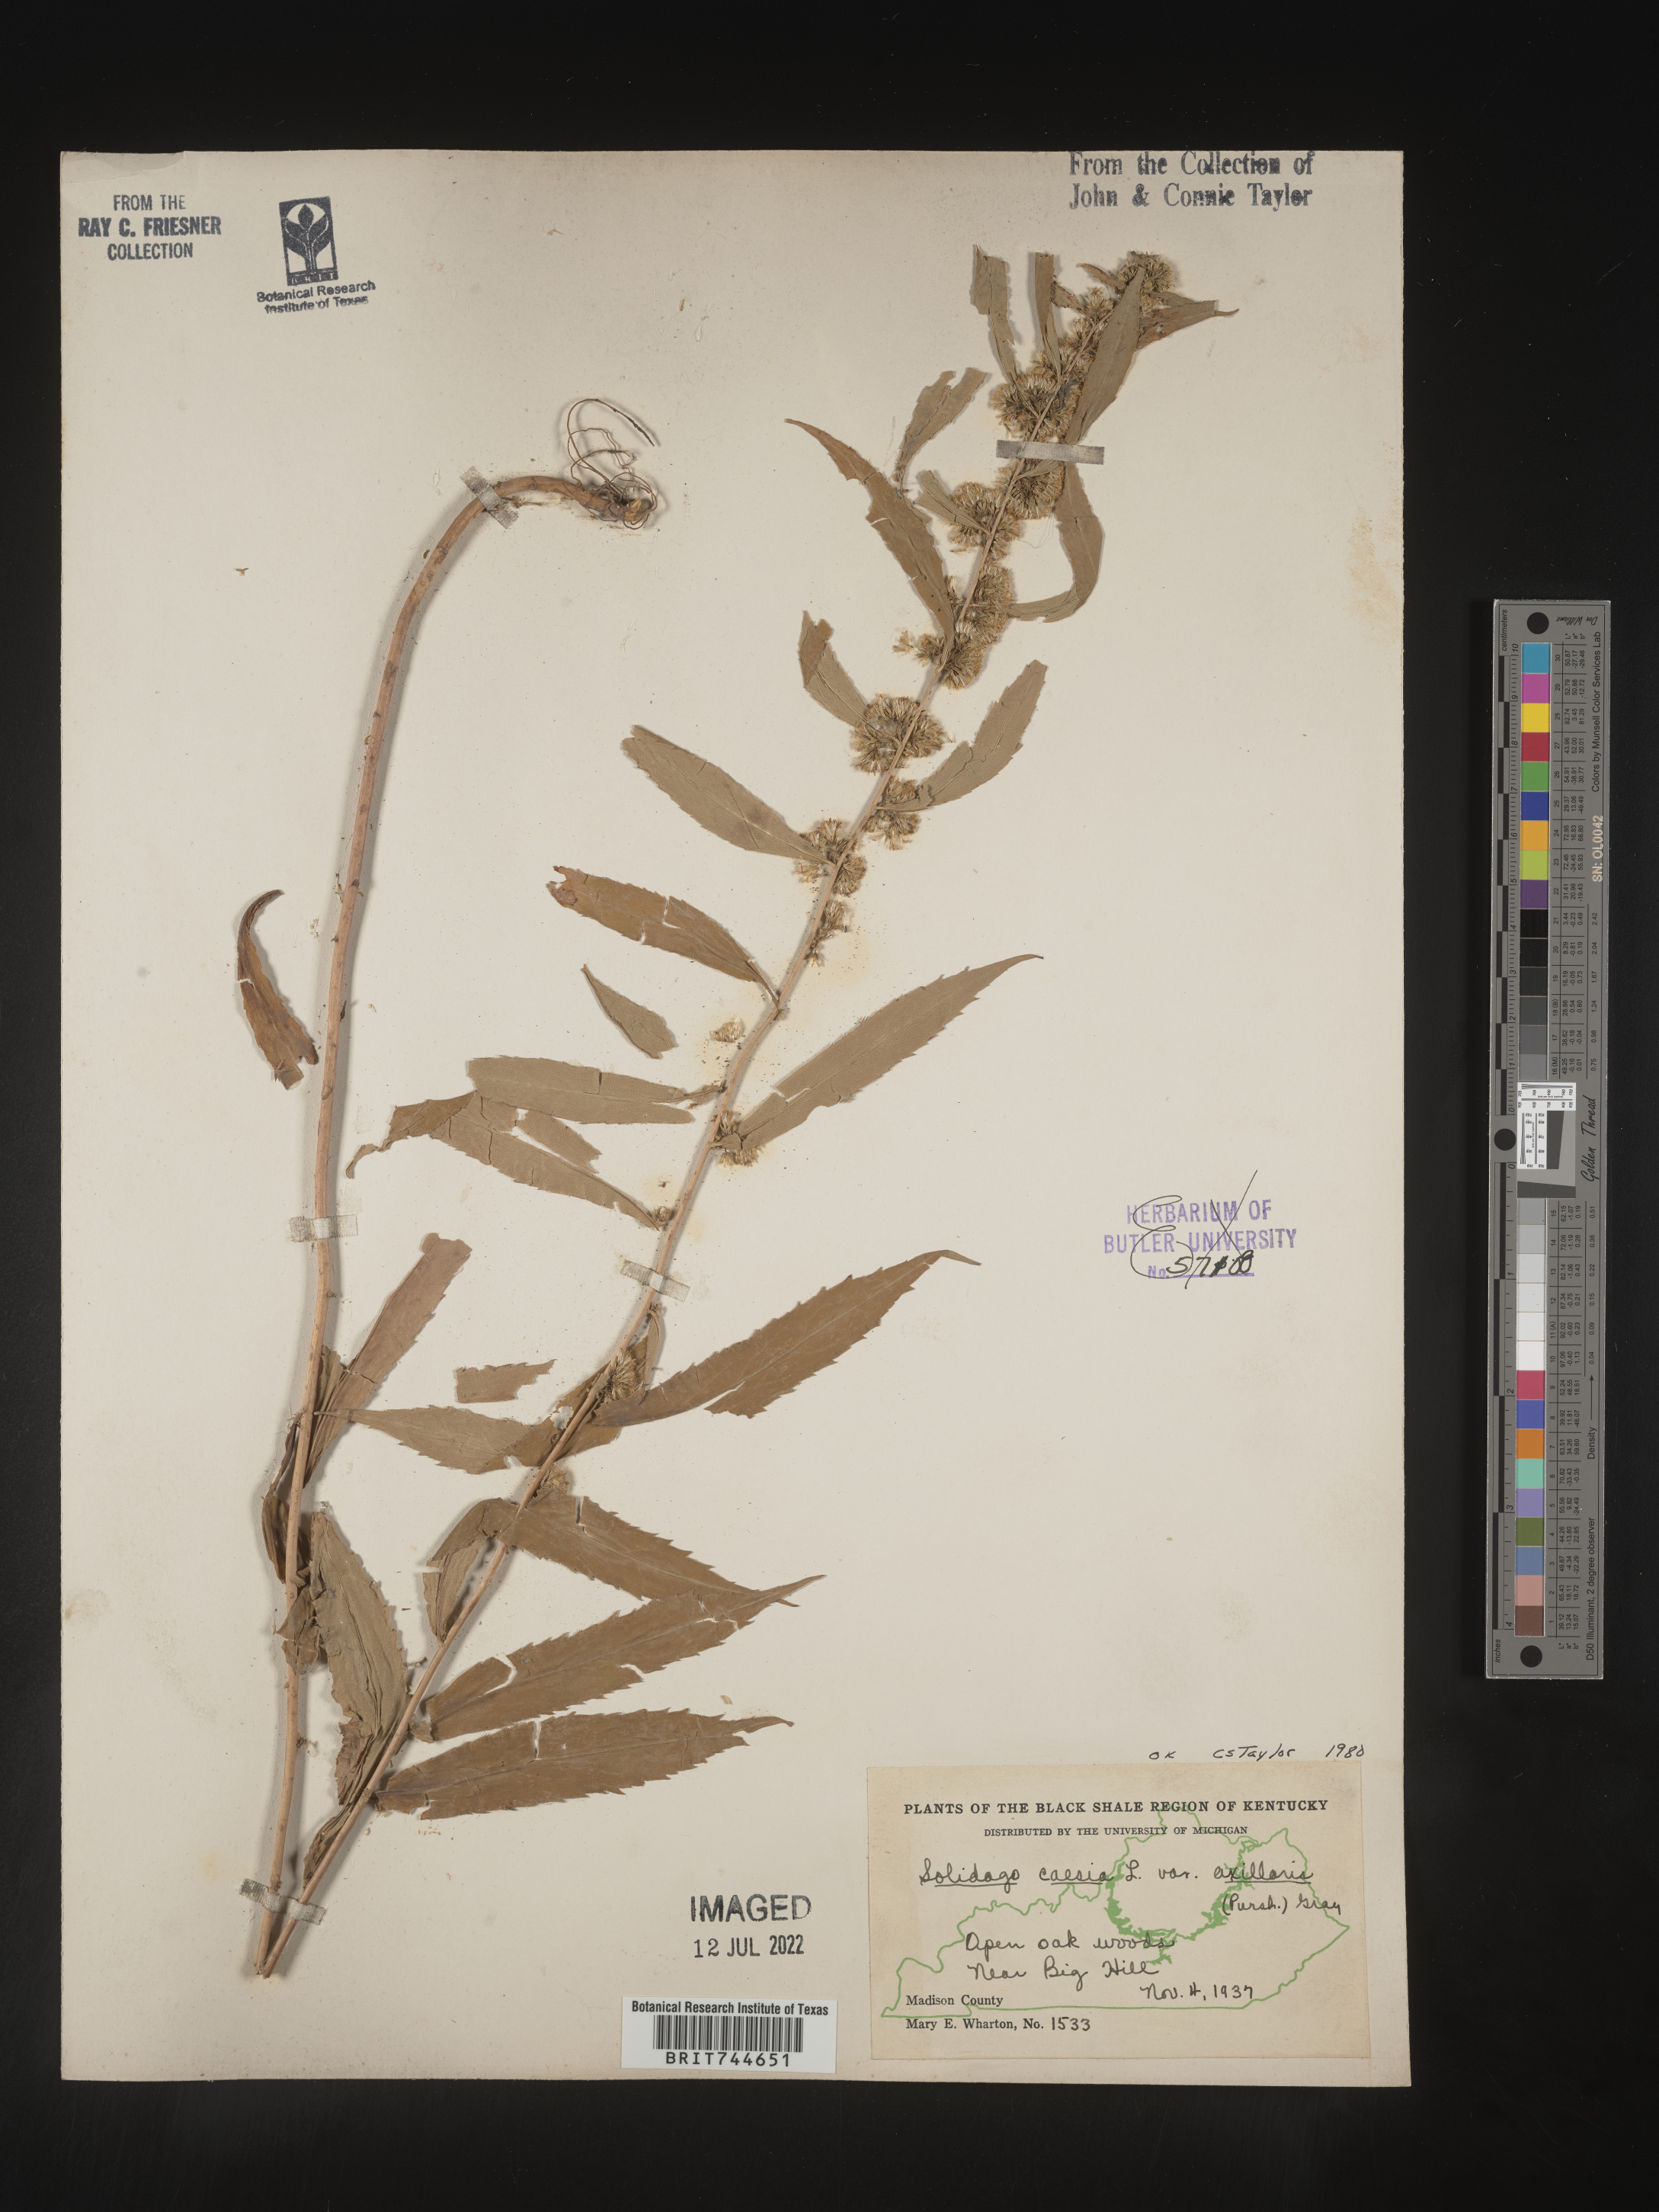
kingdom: Plantae
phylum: Tracheophyta
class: Magnoliopsida
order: Asterales
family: Asteraceae
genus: Solidago
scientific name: Solidago caesia
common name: Woodland goldenrod
